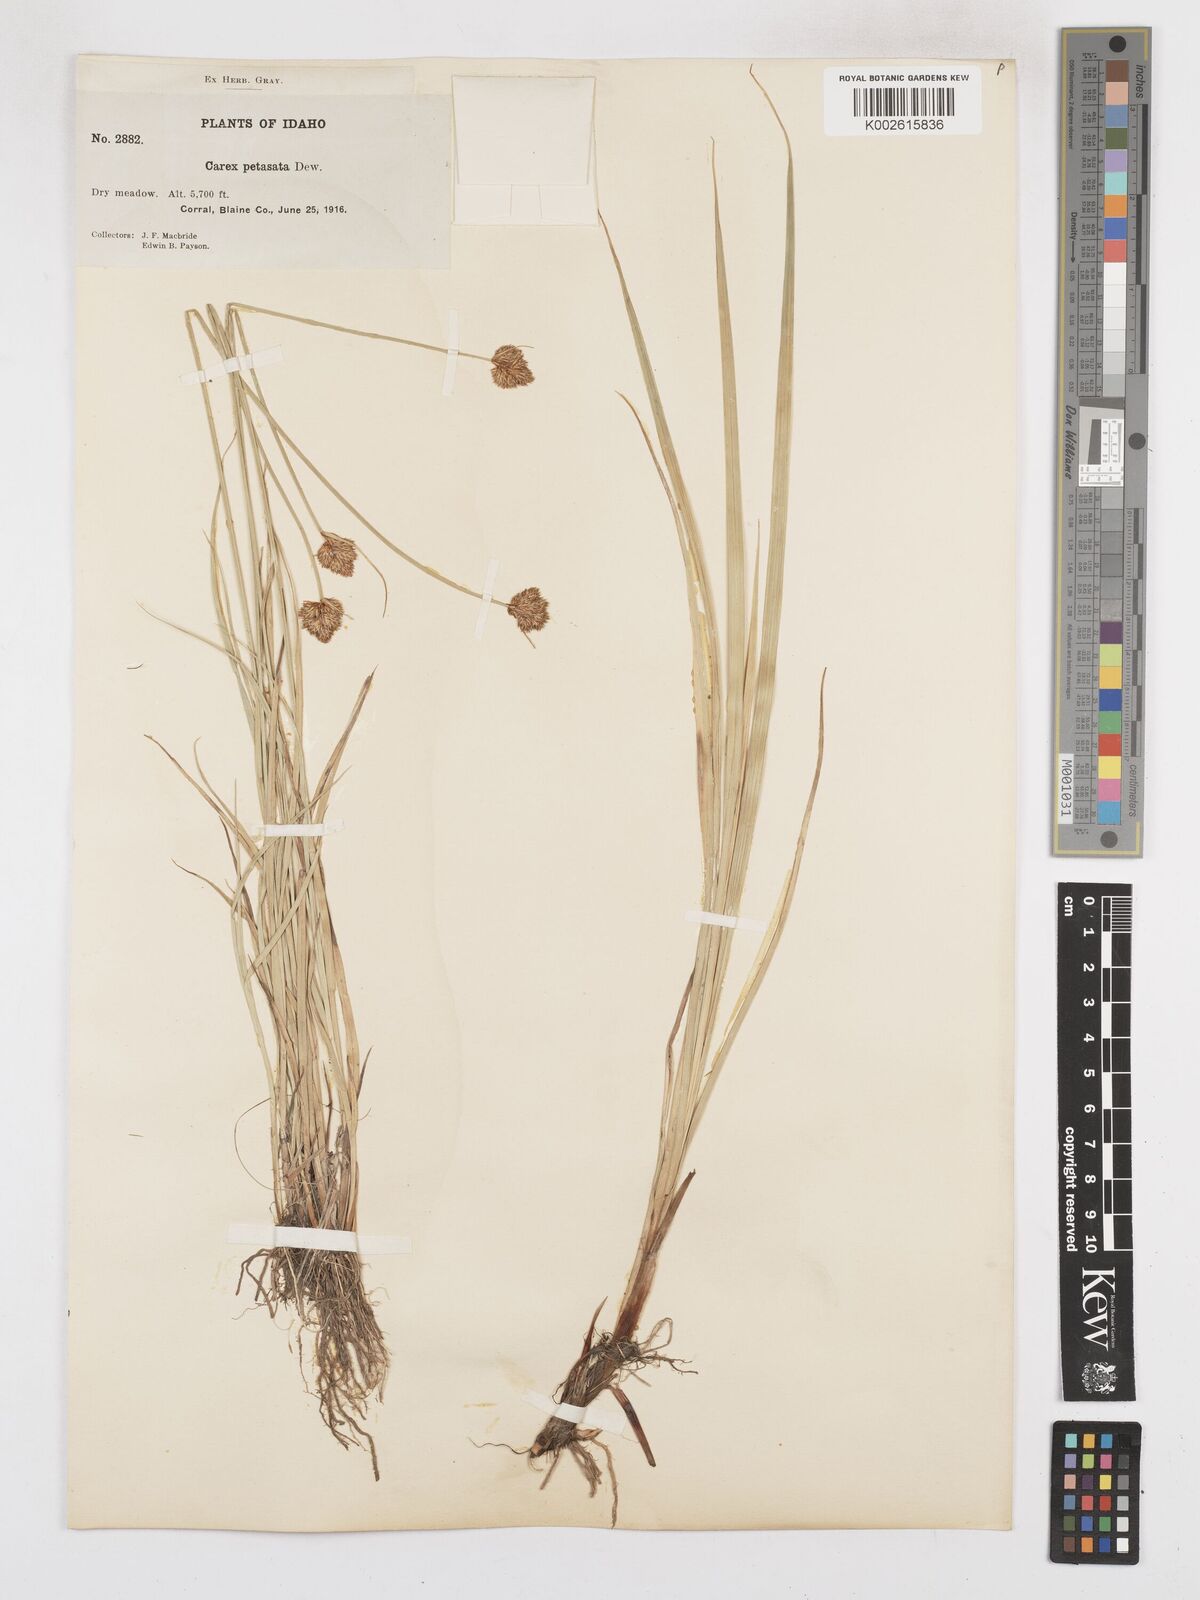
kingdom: Plantae
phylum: Tracheophyta
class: Liliopsida
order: Poales
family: Cyperaceae
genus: Carex
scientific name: Carex petasata
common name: Liddon's sedge
